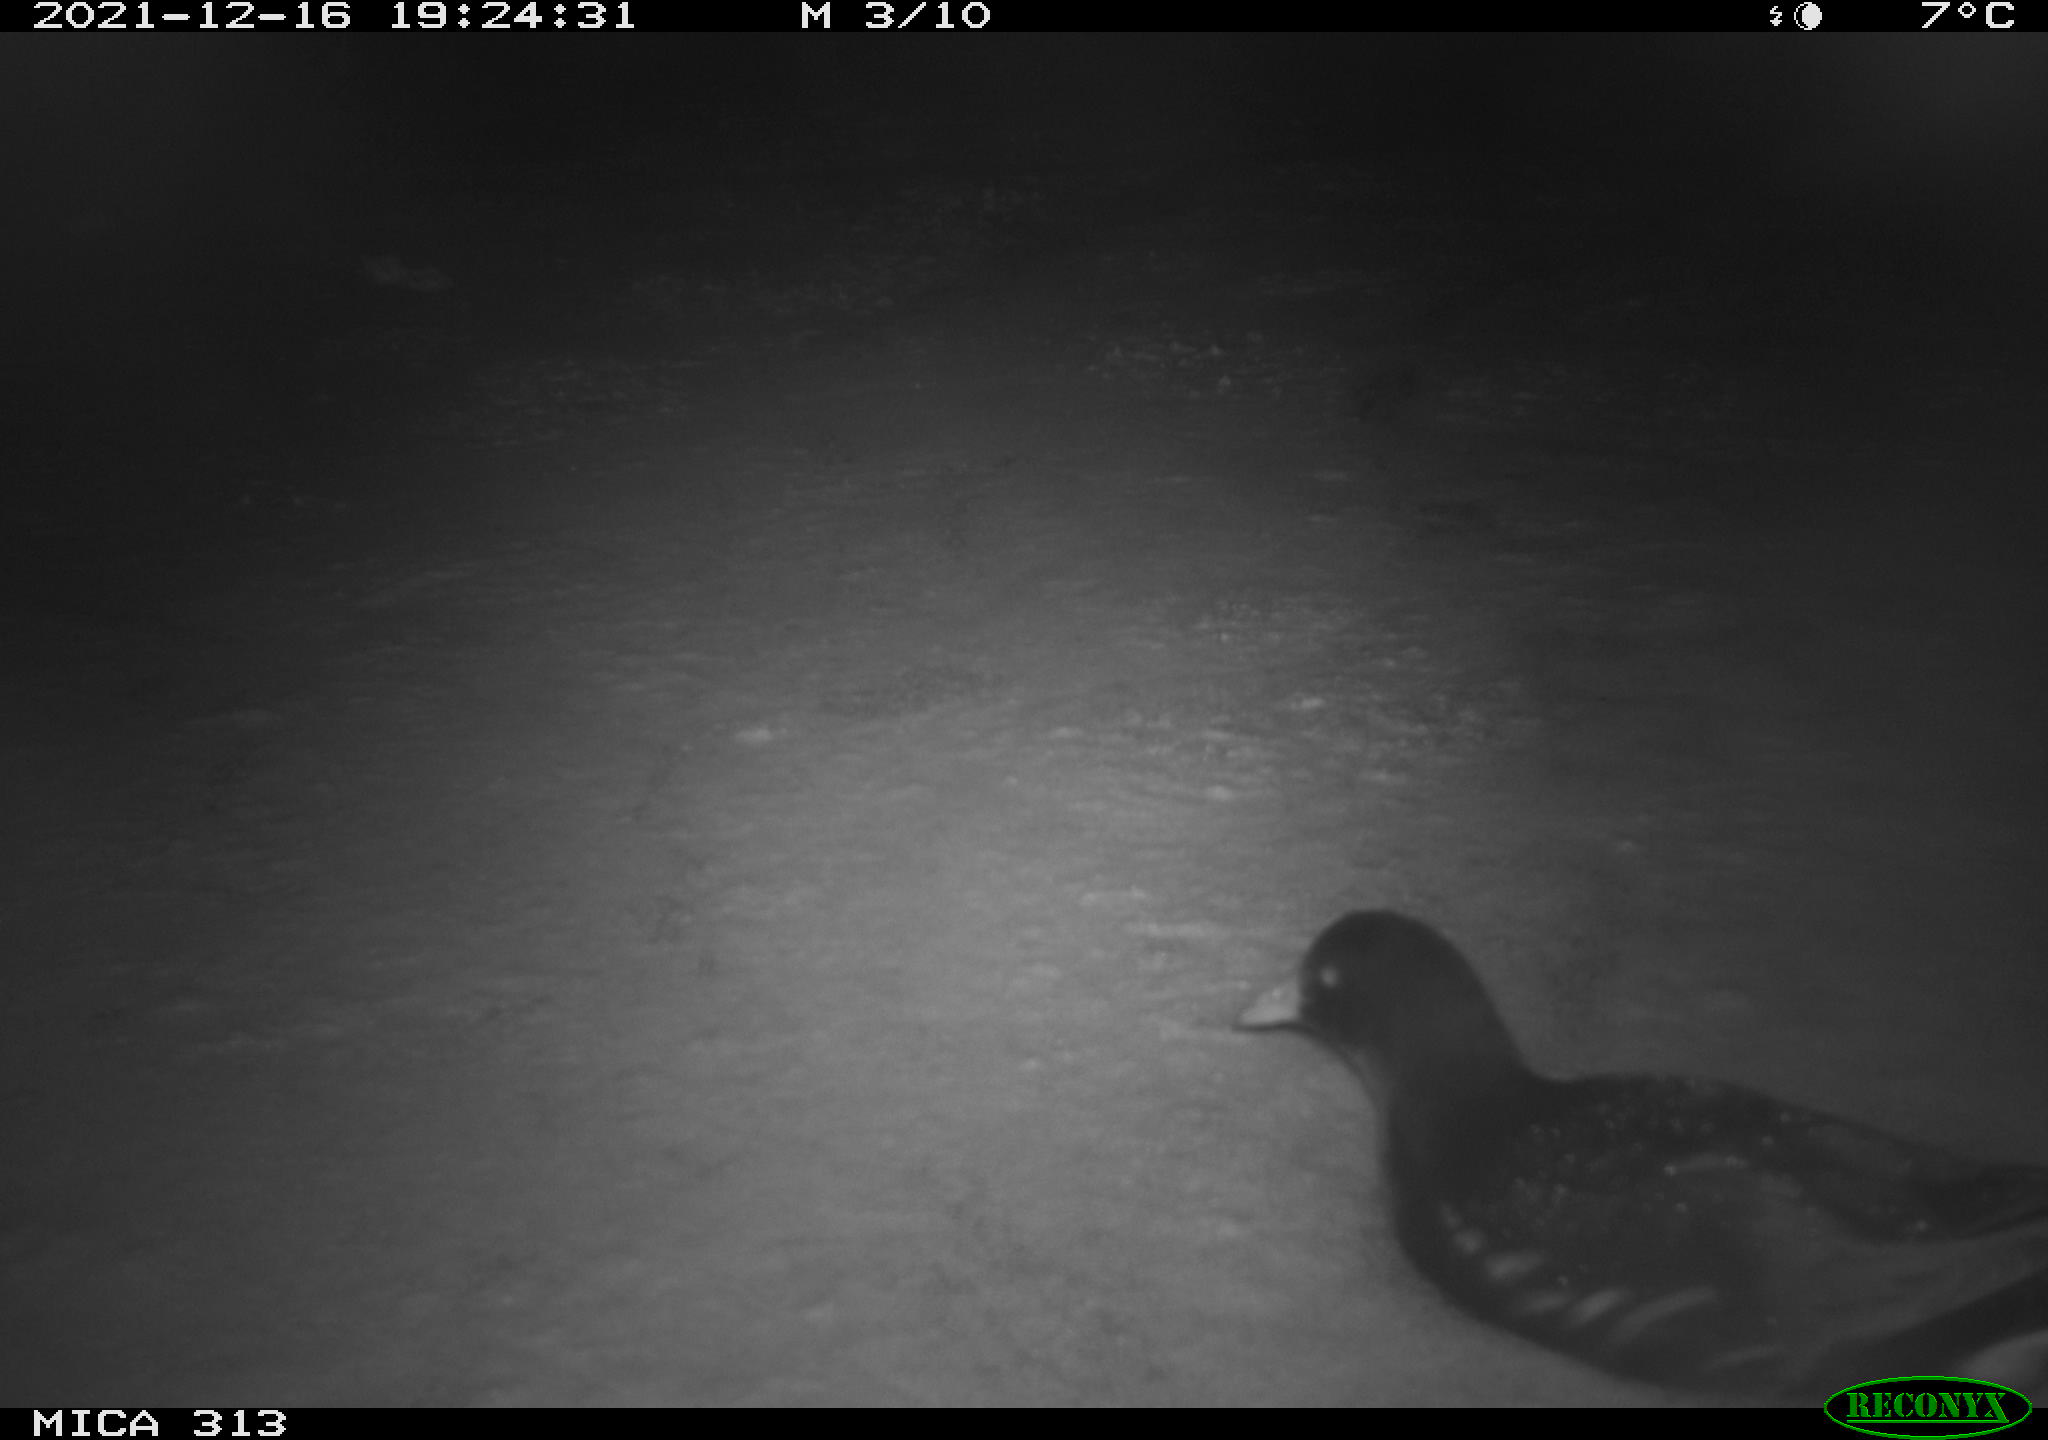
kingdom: Animalia
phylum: Chordata
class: Aves
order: Gruiformes
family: Rallidae
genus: Gallinula
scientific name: Gallinula chloropus
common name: Common moorhen
